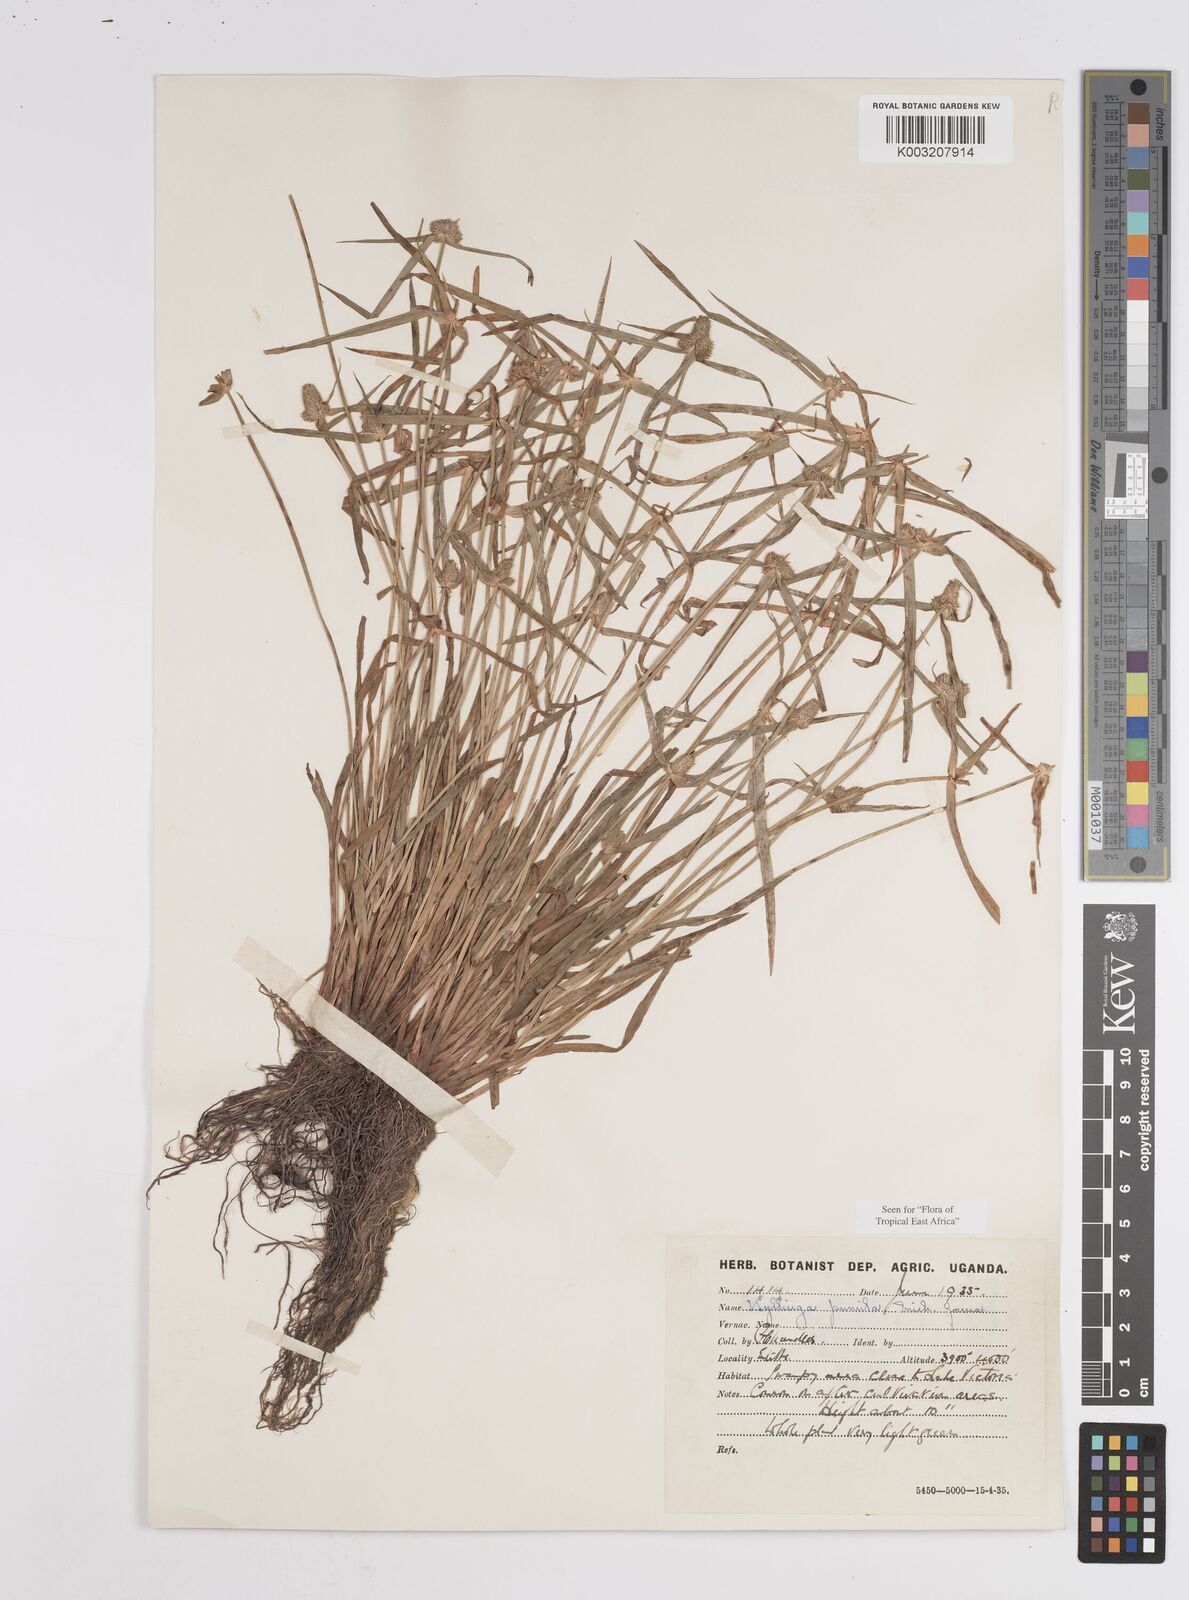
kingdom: Plantae
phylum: Tracheophyta
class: Liliopsida
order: Poales
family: Cyperaceae
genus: Cyperus
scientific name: Cyperus
